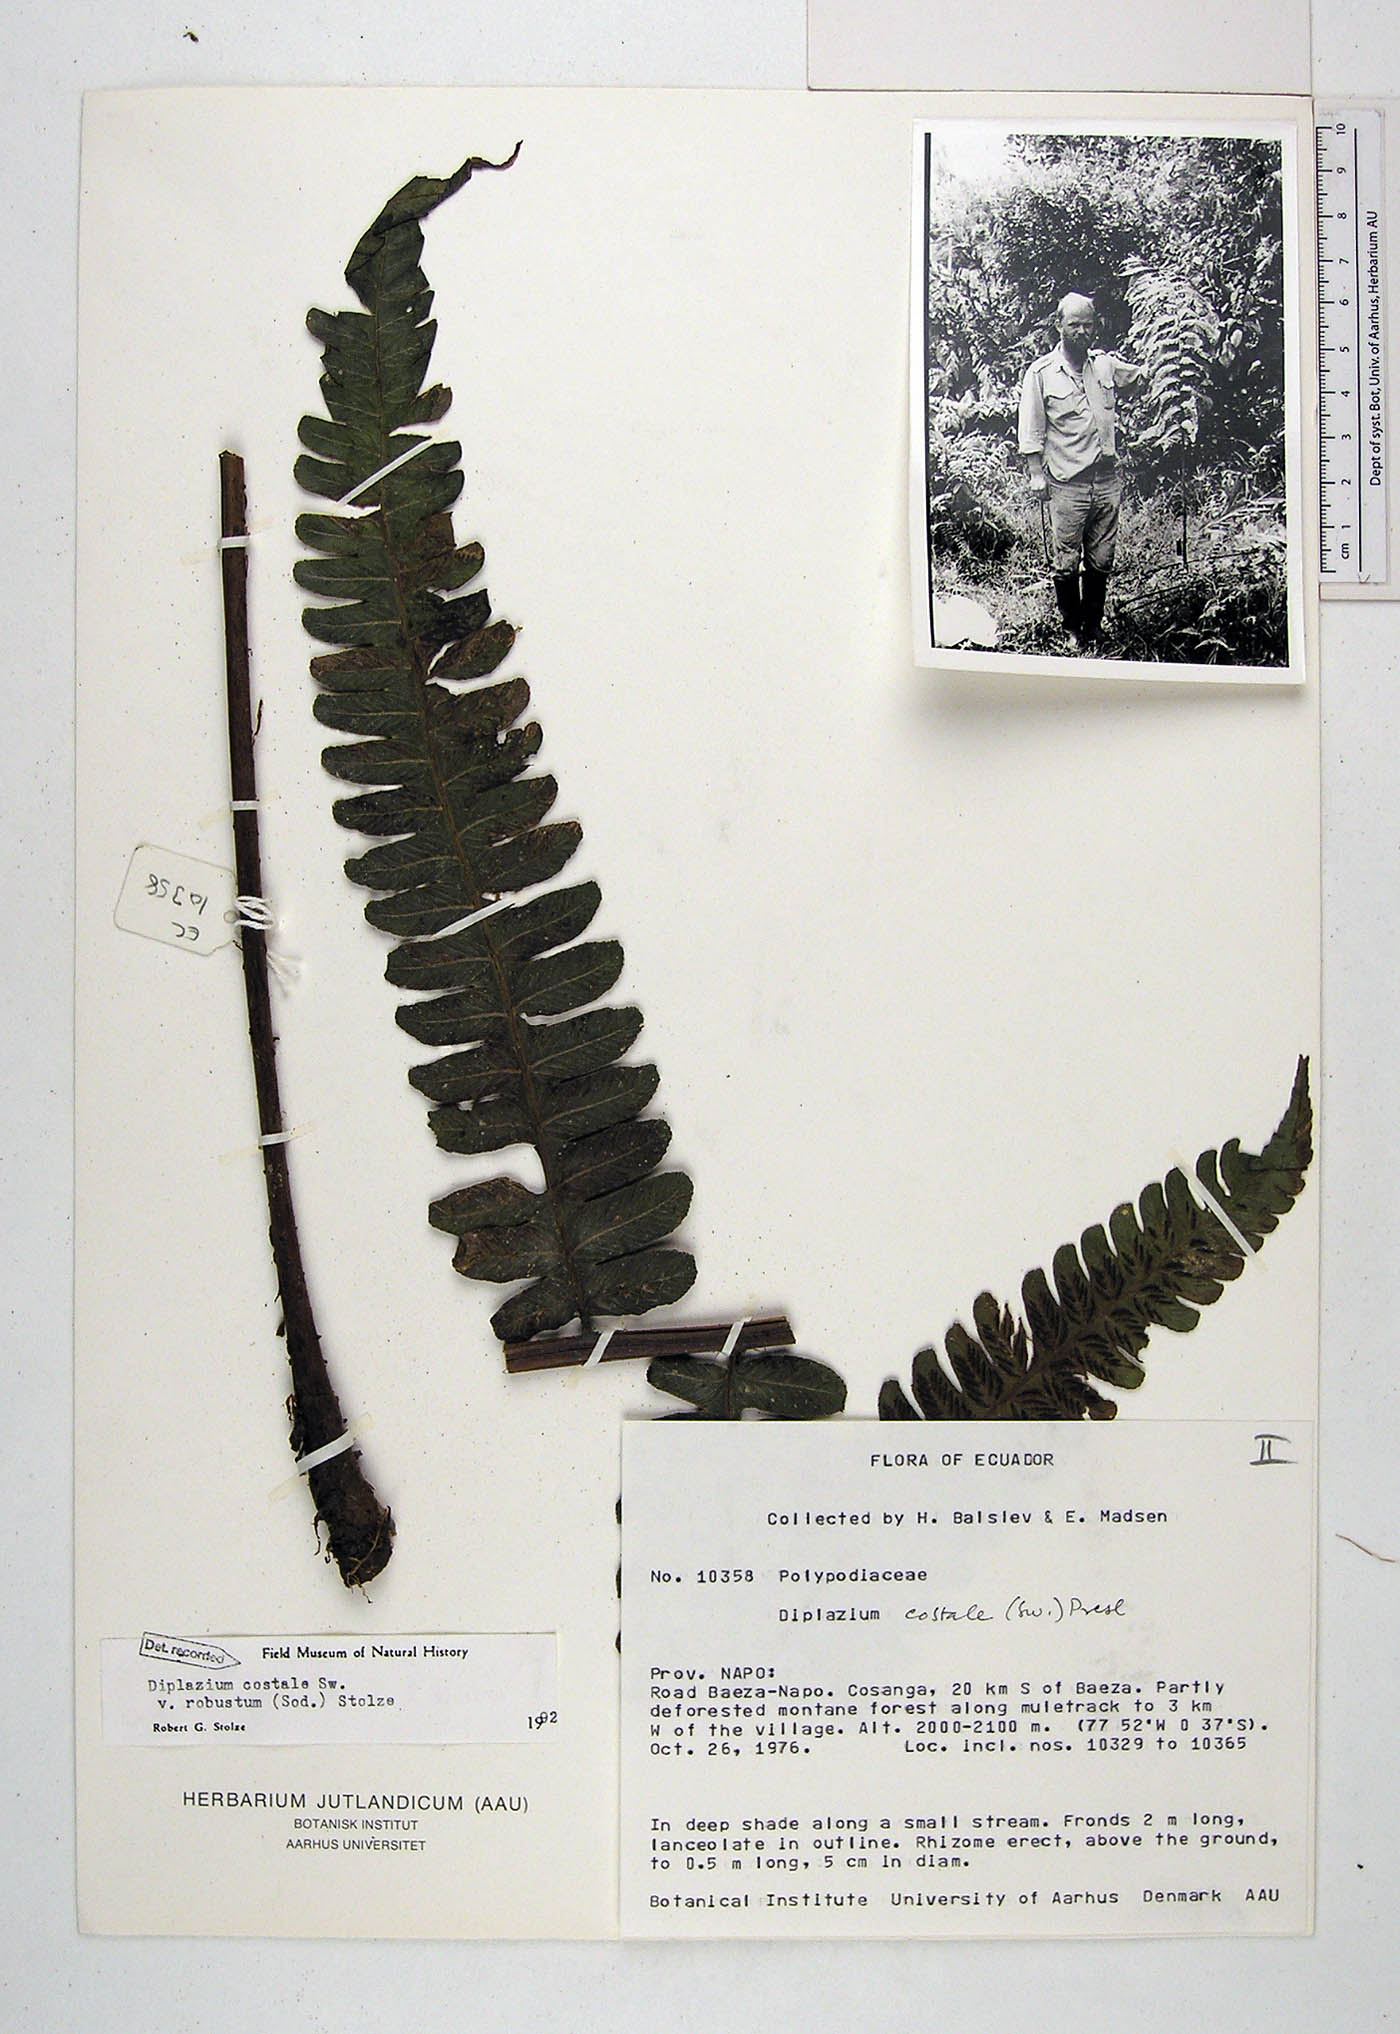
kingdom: Plantae
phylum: Tracheophyta
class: Polypodiopsida
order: Polypodiales
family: Athyriaceae
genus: Diplazium
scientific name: Diplazium costale
